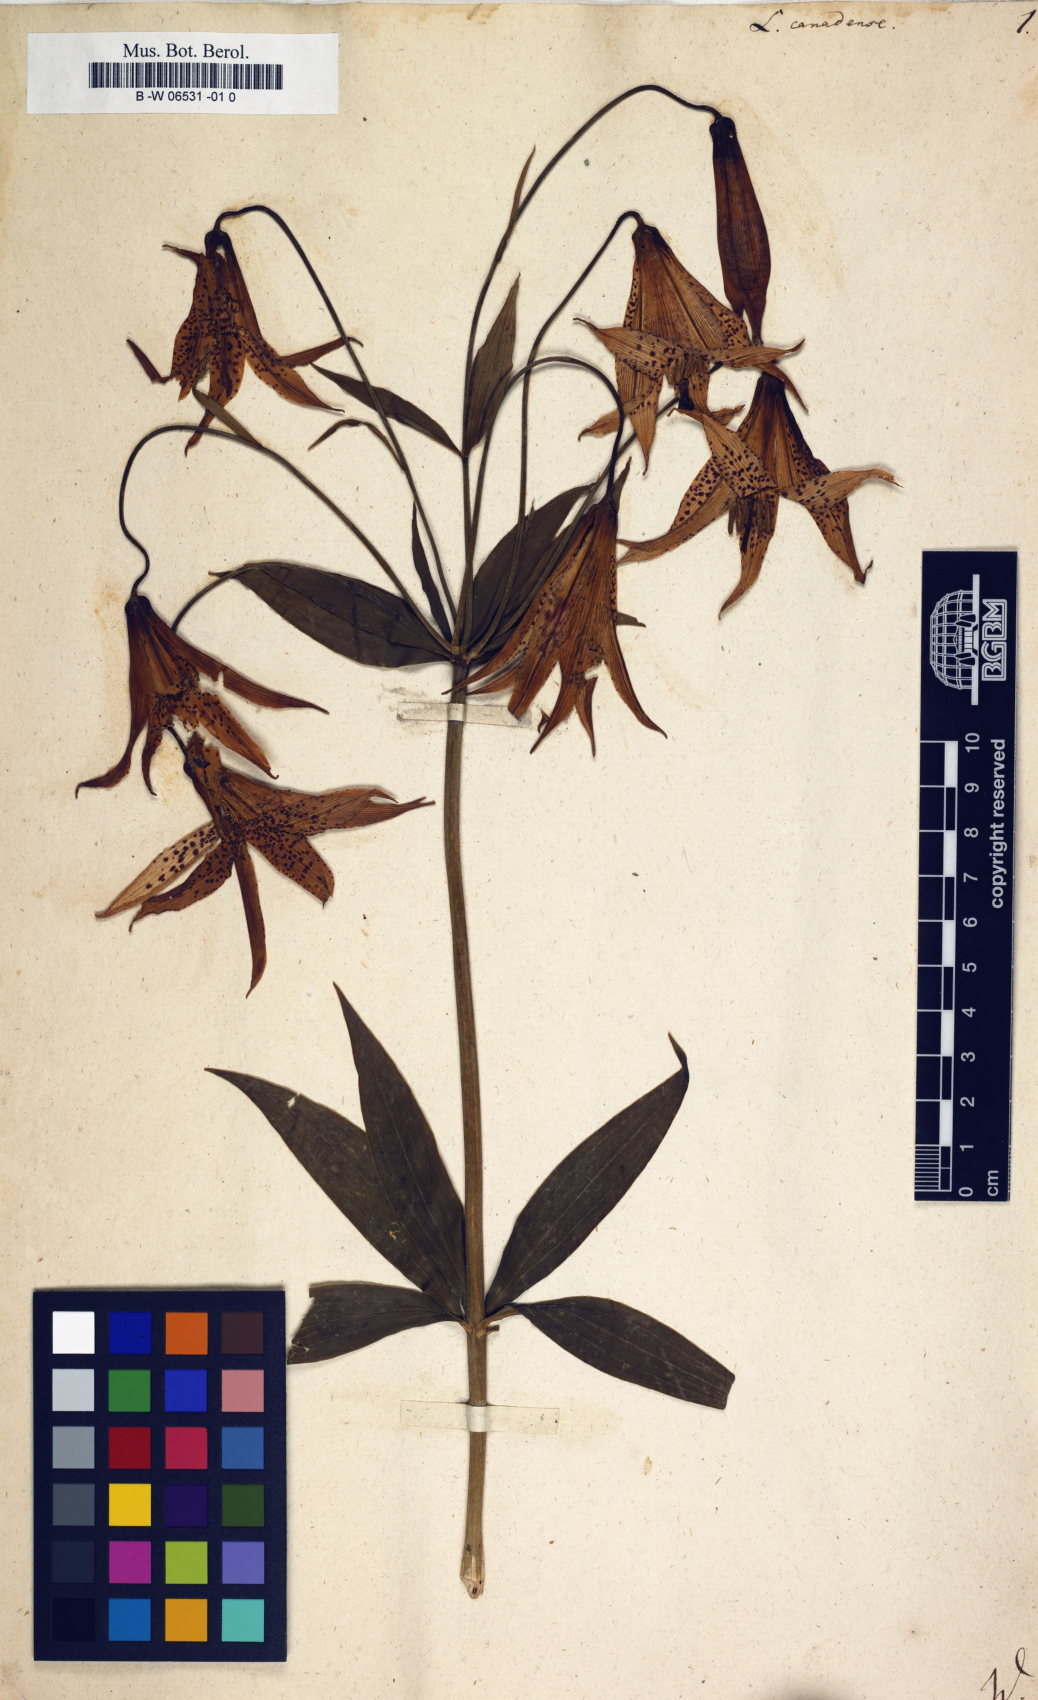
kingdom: Plantae
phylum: Tracheophyta
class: Liliopsida
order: Liliales
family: Liliaceae
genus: Lilium
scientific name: Lilium canadense
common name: Canada lily
